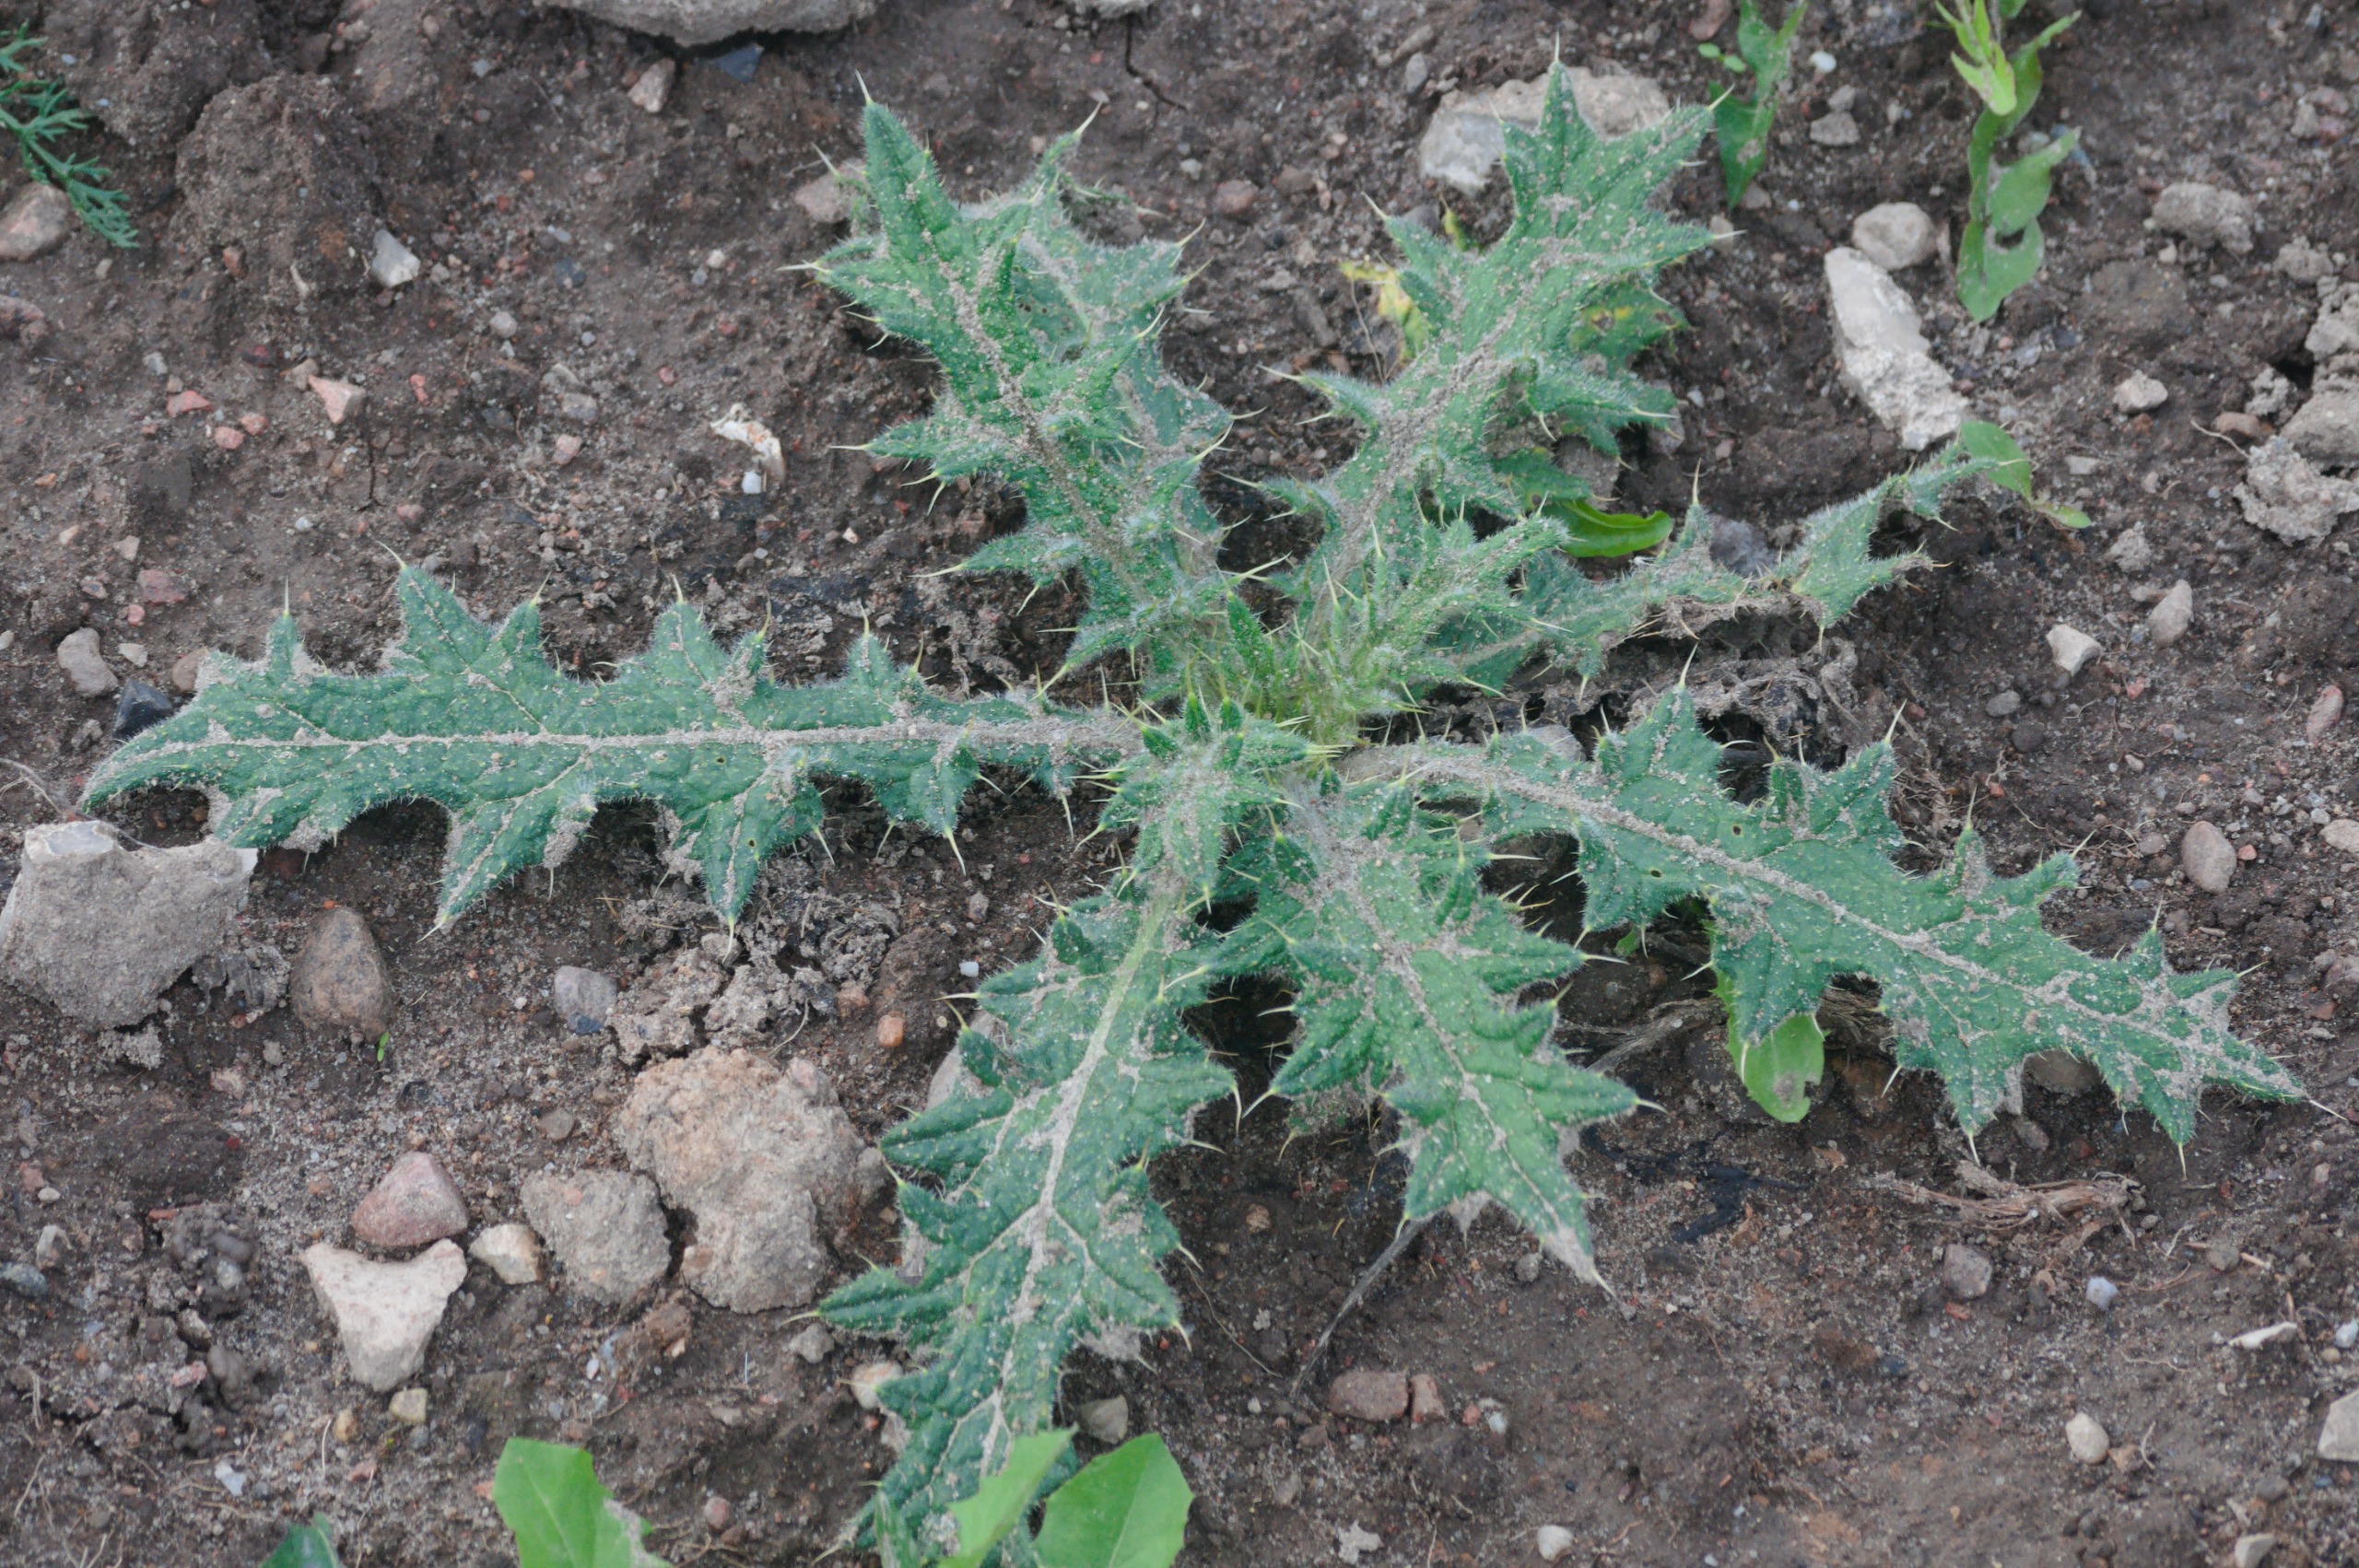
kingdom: Plantae
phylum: Tracheophyta
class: Magnoliopsida
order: Asterales
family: Asteraceae
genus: Cirsium
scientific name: Cirsium vulgare
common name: Horse-tidsel
